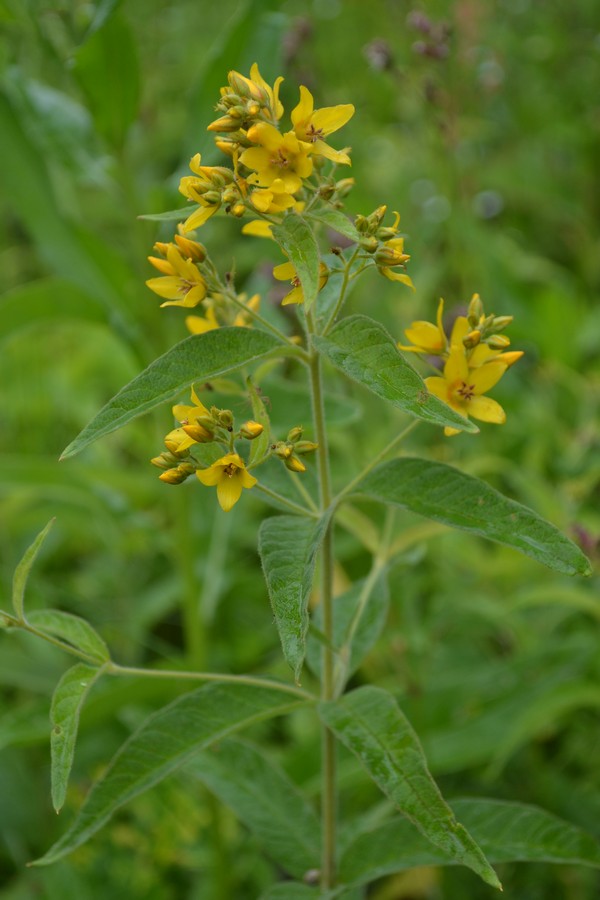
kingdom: Plantae
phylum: Tracheophyta
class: Magnoliopsida
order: Ericales
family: Primulaceae
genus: Lysimachia
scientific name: Lysimachia vulgaris
